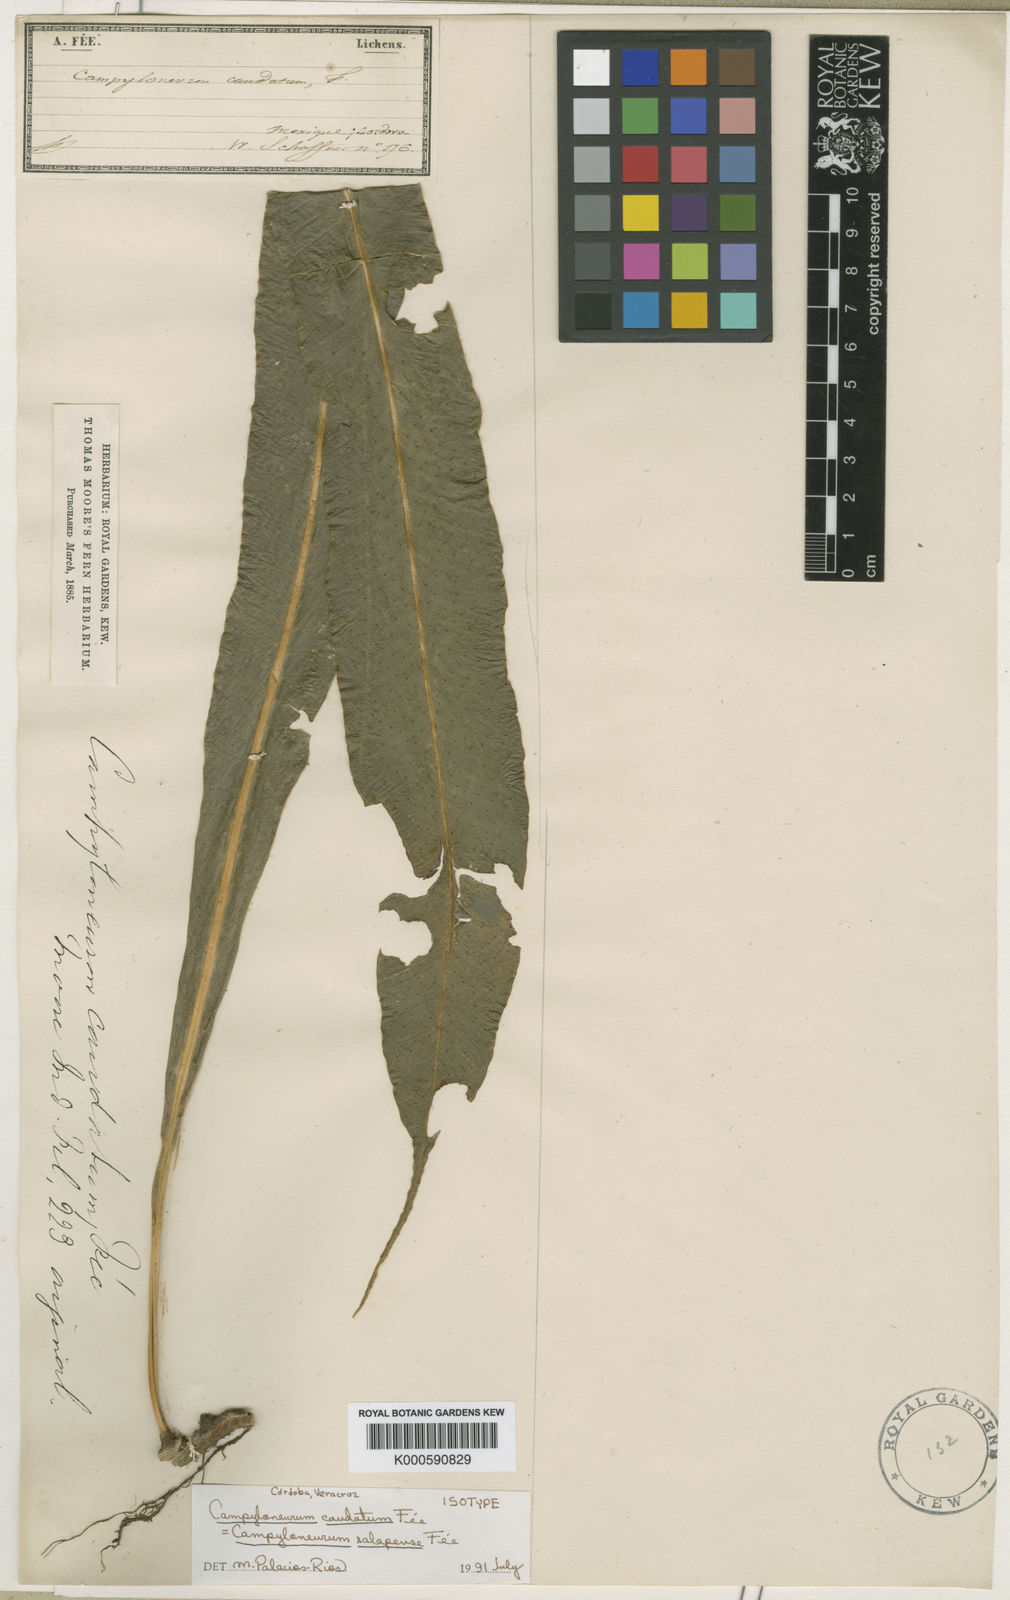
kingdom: Plantae
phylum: Tracheophyta
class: Polypodiopsida
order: Polypodiales
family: Polypodiaceae
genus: Campyloneurum
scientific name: Campyloneurum
